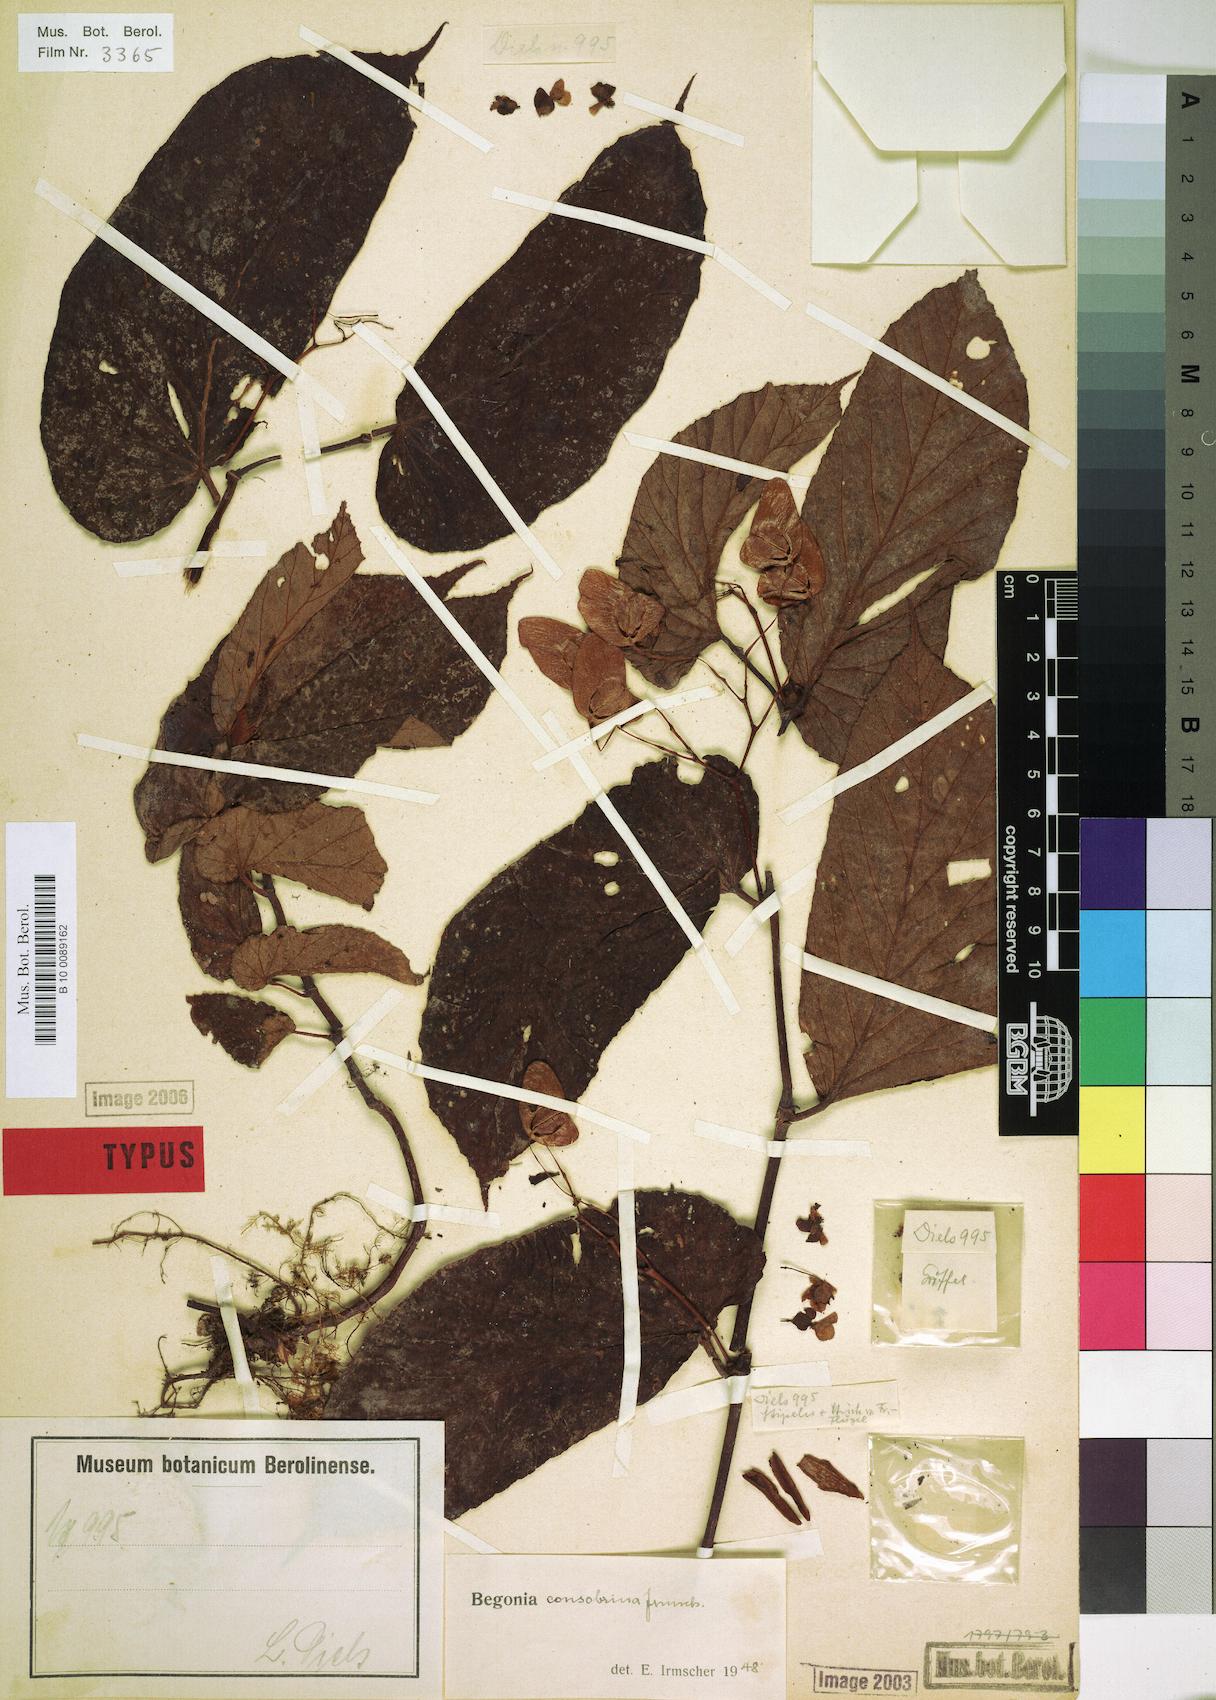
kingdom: Plantae
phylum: Tracheophyta
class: Magnoliopsida
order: Cucurbitales
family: Begoniaceae
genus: Begonia
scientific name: Begonia consobrina
